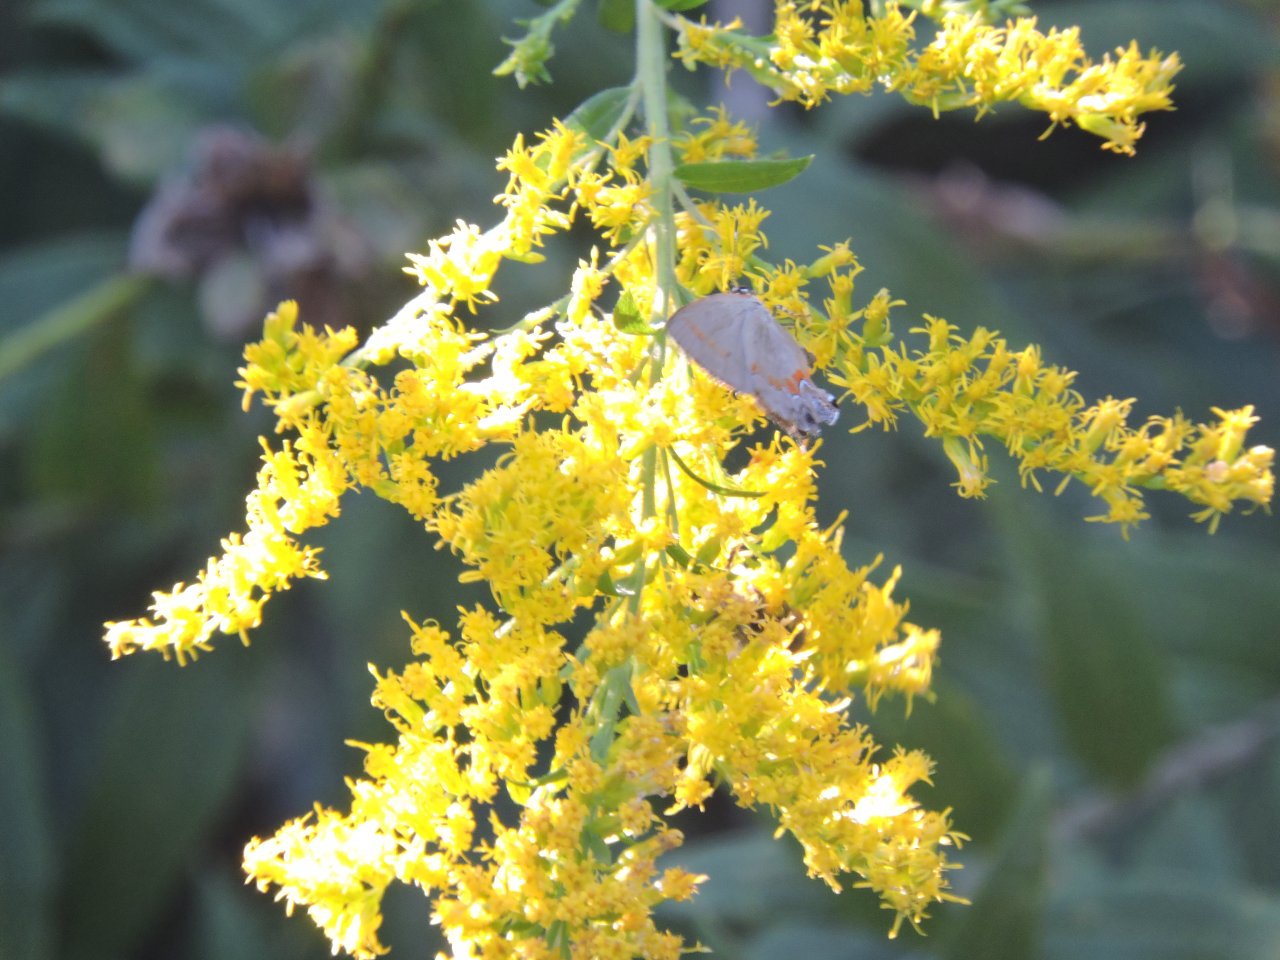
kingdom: Animalia
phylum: Arthropoda
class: Insecta
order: Lepidoptera
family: Lycaenidae
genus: Calycopis
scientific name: Calycopis cecrops
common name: Red-banded Hairstreak
